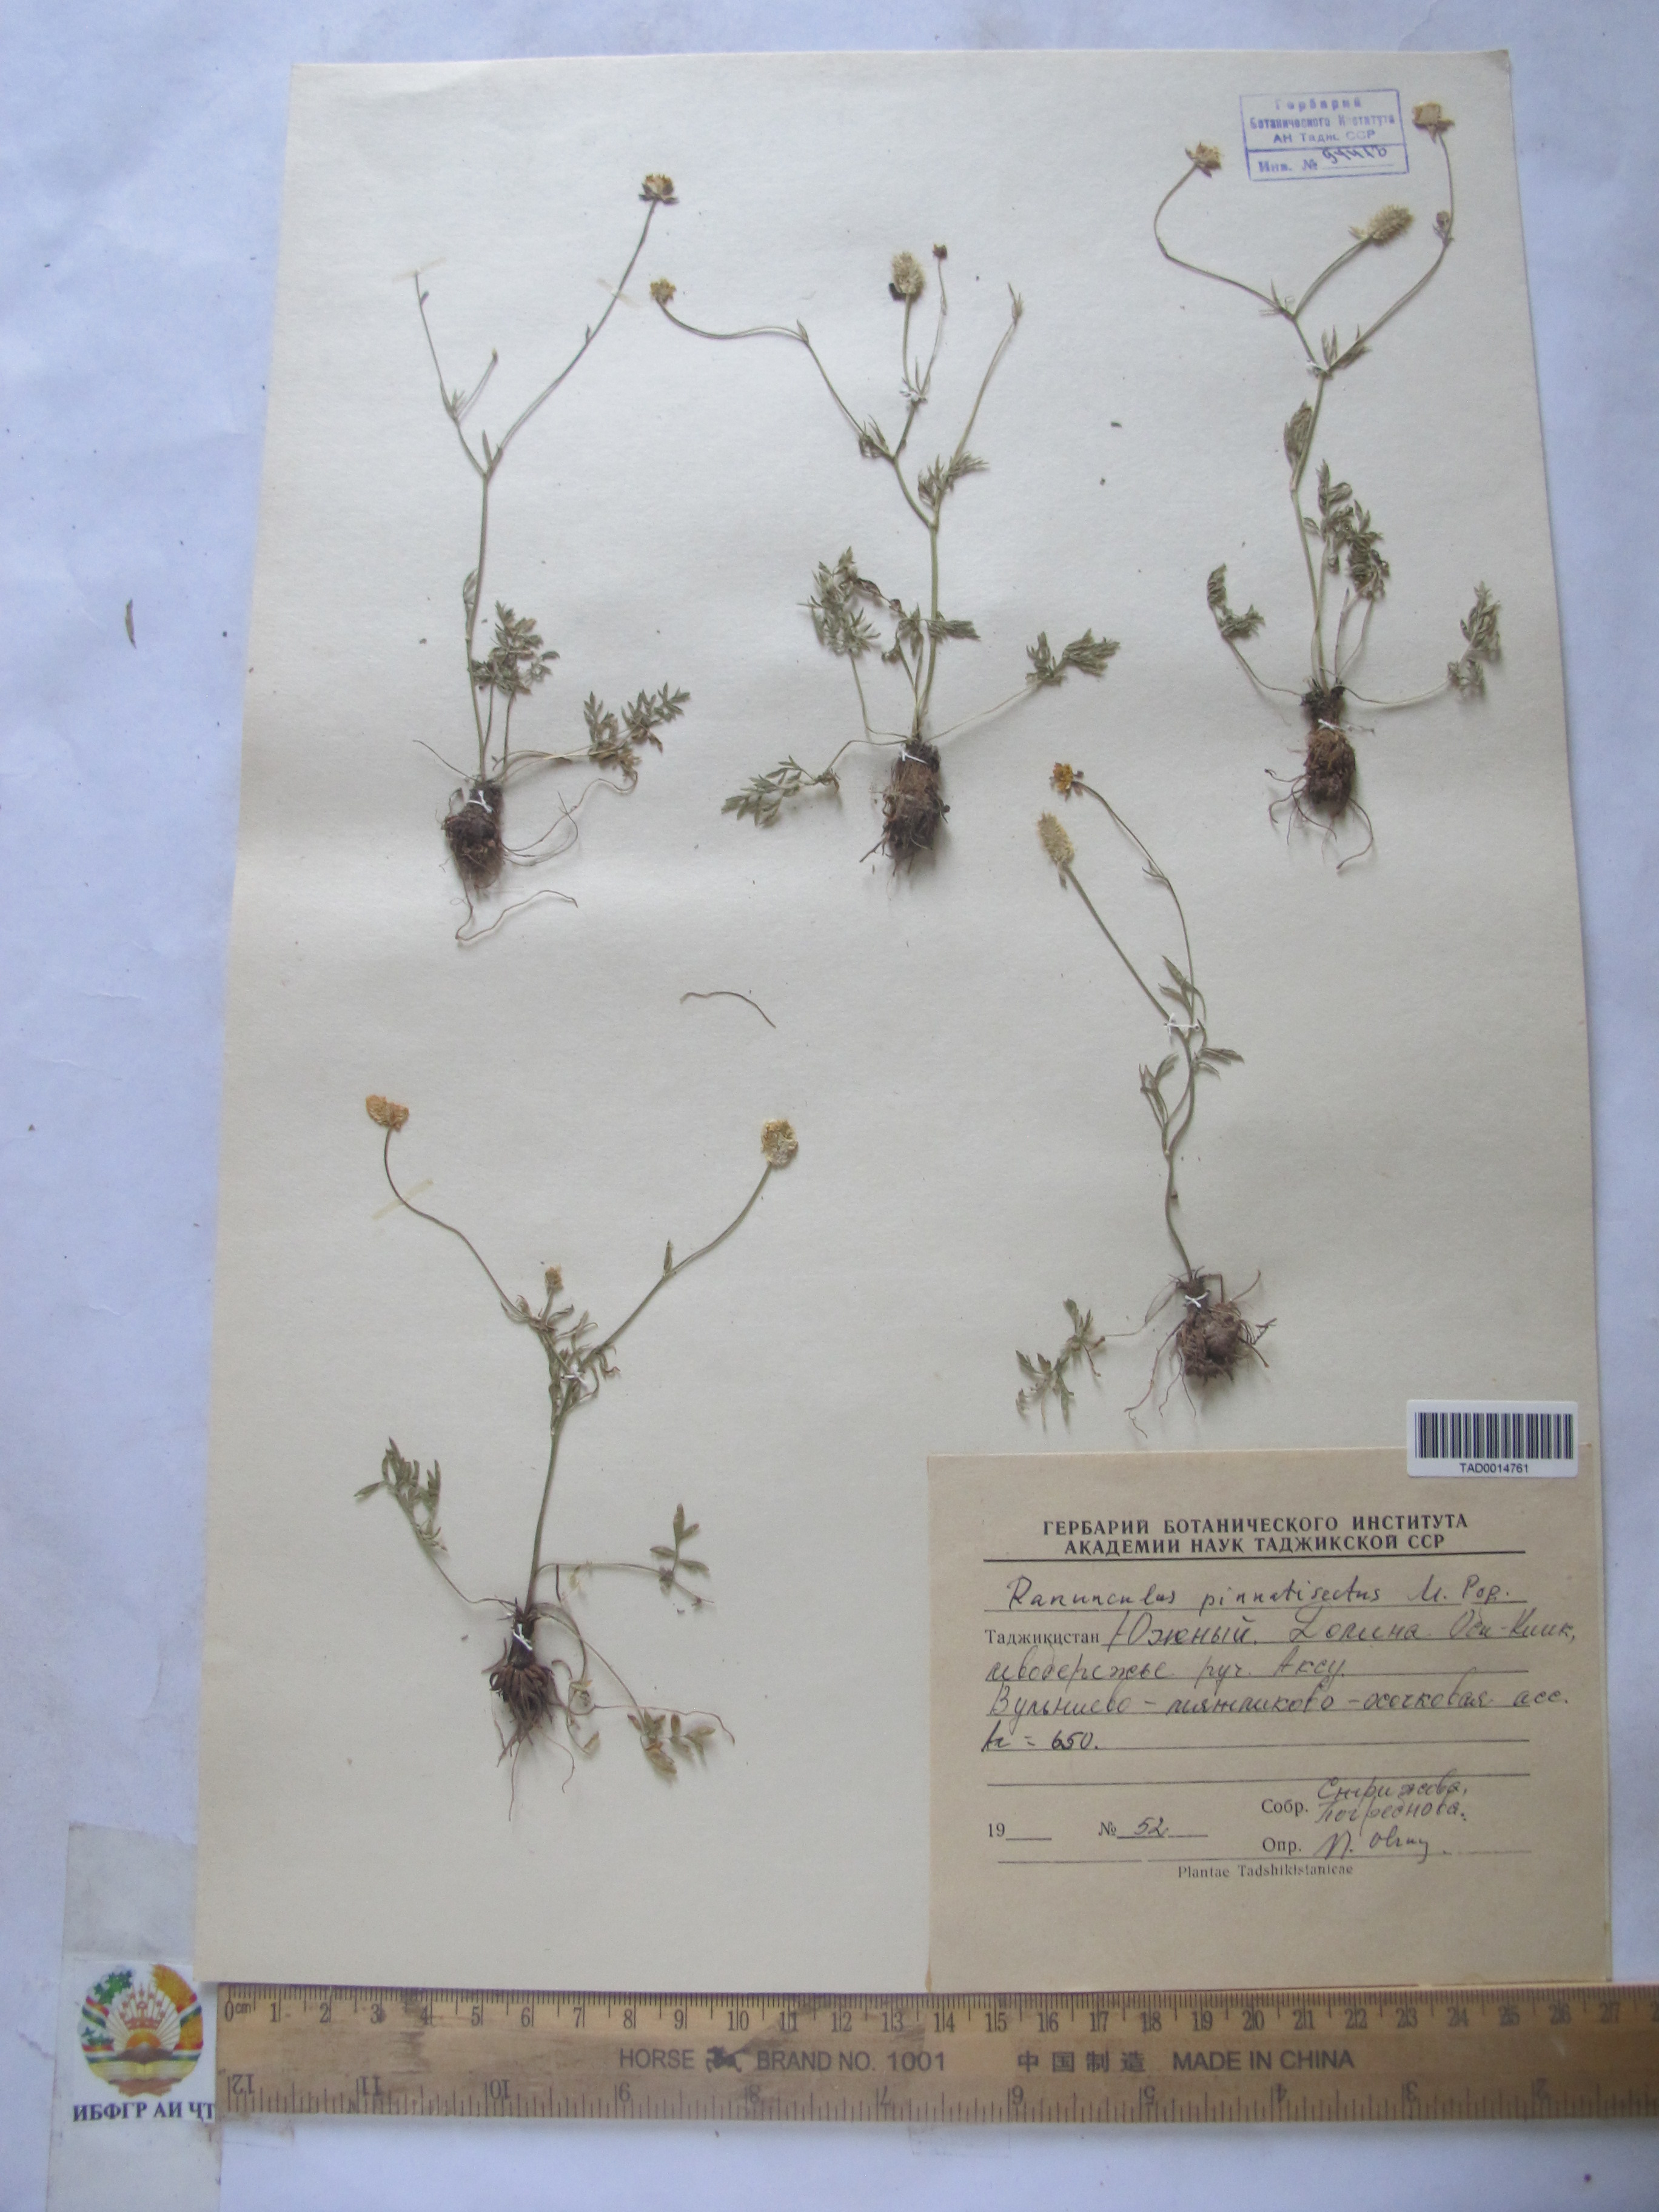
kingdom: Plantae
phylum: Tracheophyta
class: Magnoliopsida
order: Ranunculales
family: Ranunculaceae
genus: Ranunculus
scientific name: Ranunculus pinnatisectus
